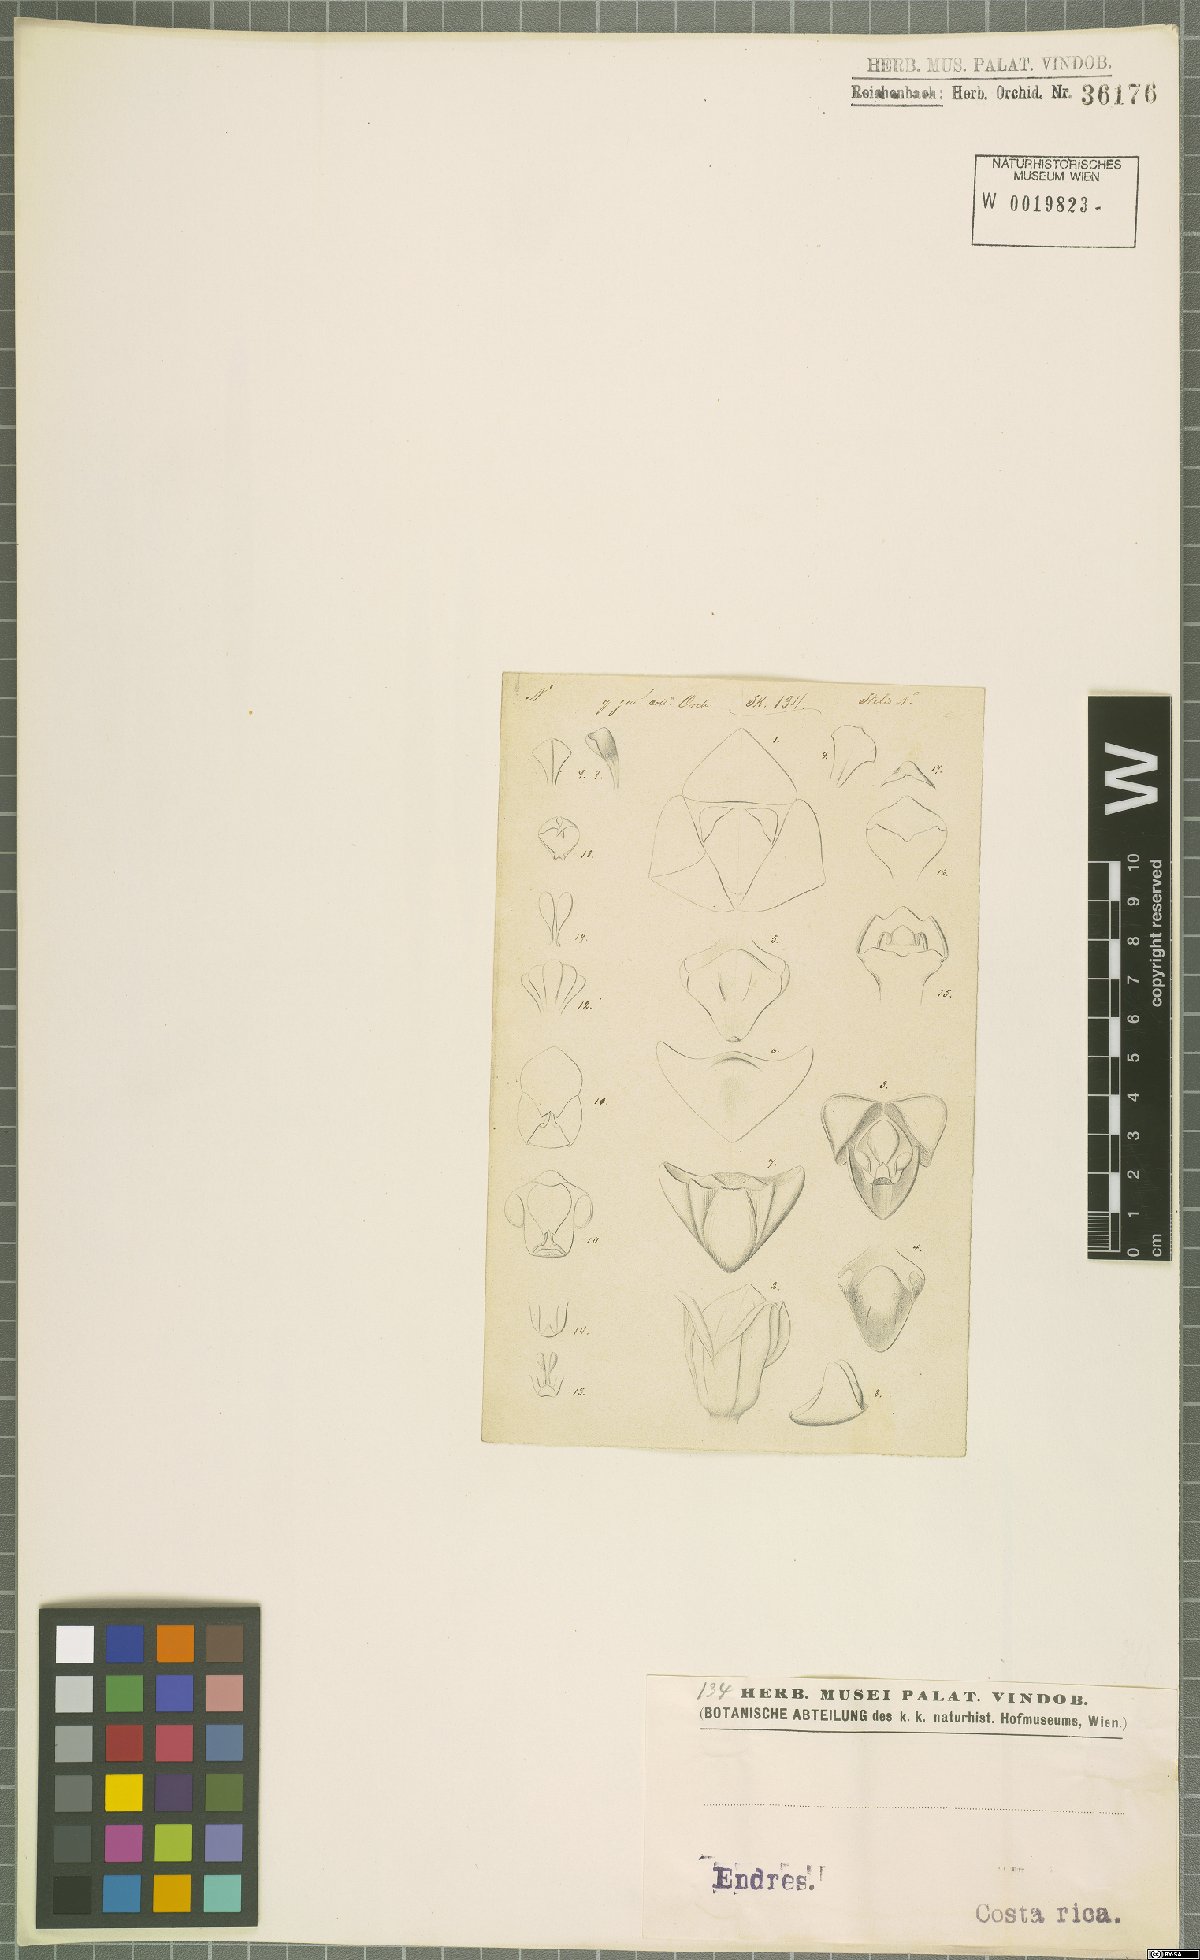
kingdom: Plantae
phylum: Tracheophyta
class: Liliopsida
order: Asparagales
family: Orchidaceae
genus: Stelis
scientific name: Stelis
